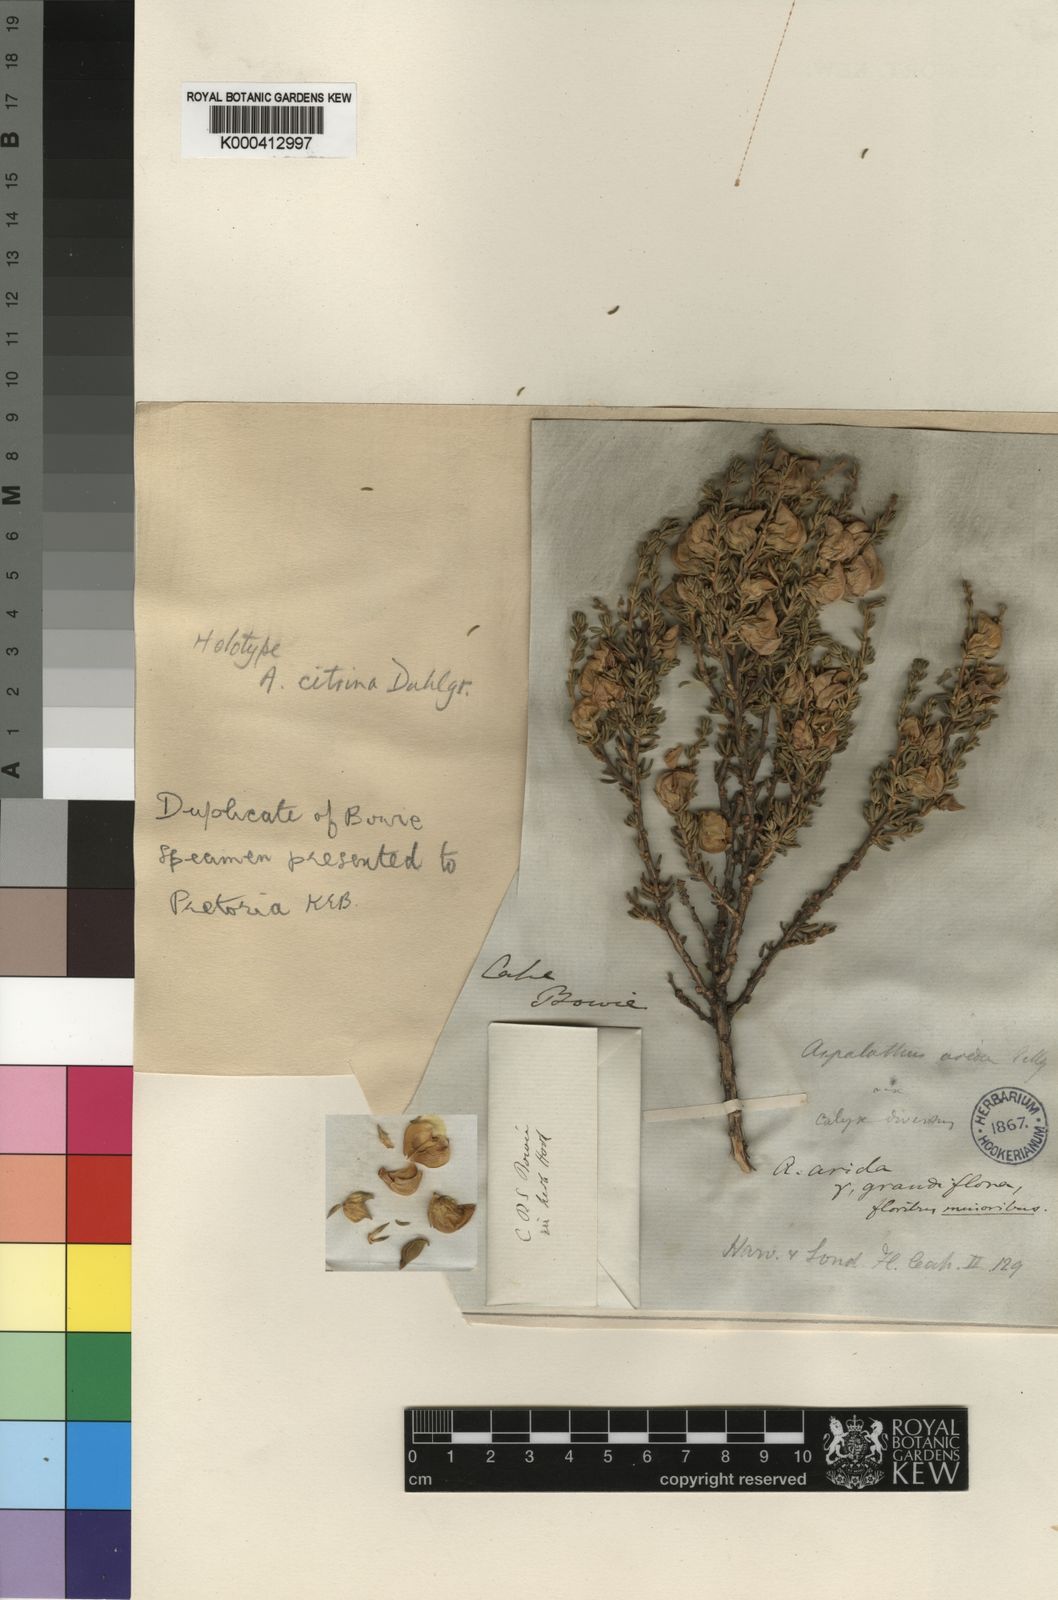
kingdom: Plantae
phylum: Tracheophyta
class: Magnoliopsida
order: Fabales
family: Fabaceae
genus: Aspalathus
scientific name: Aspalathus citrina
